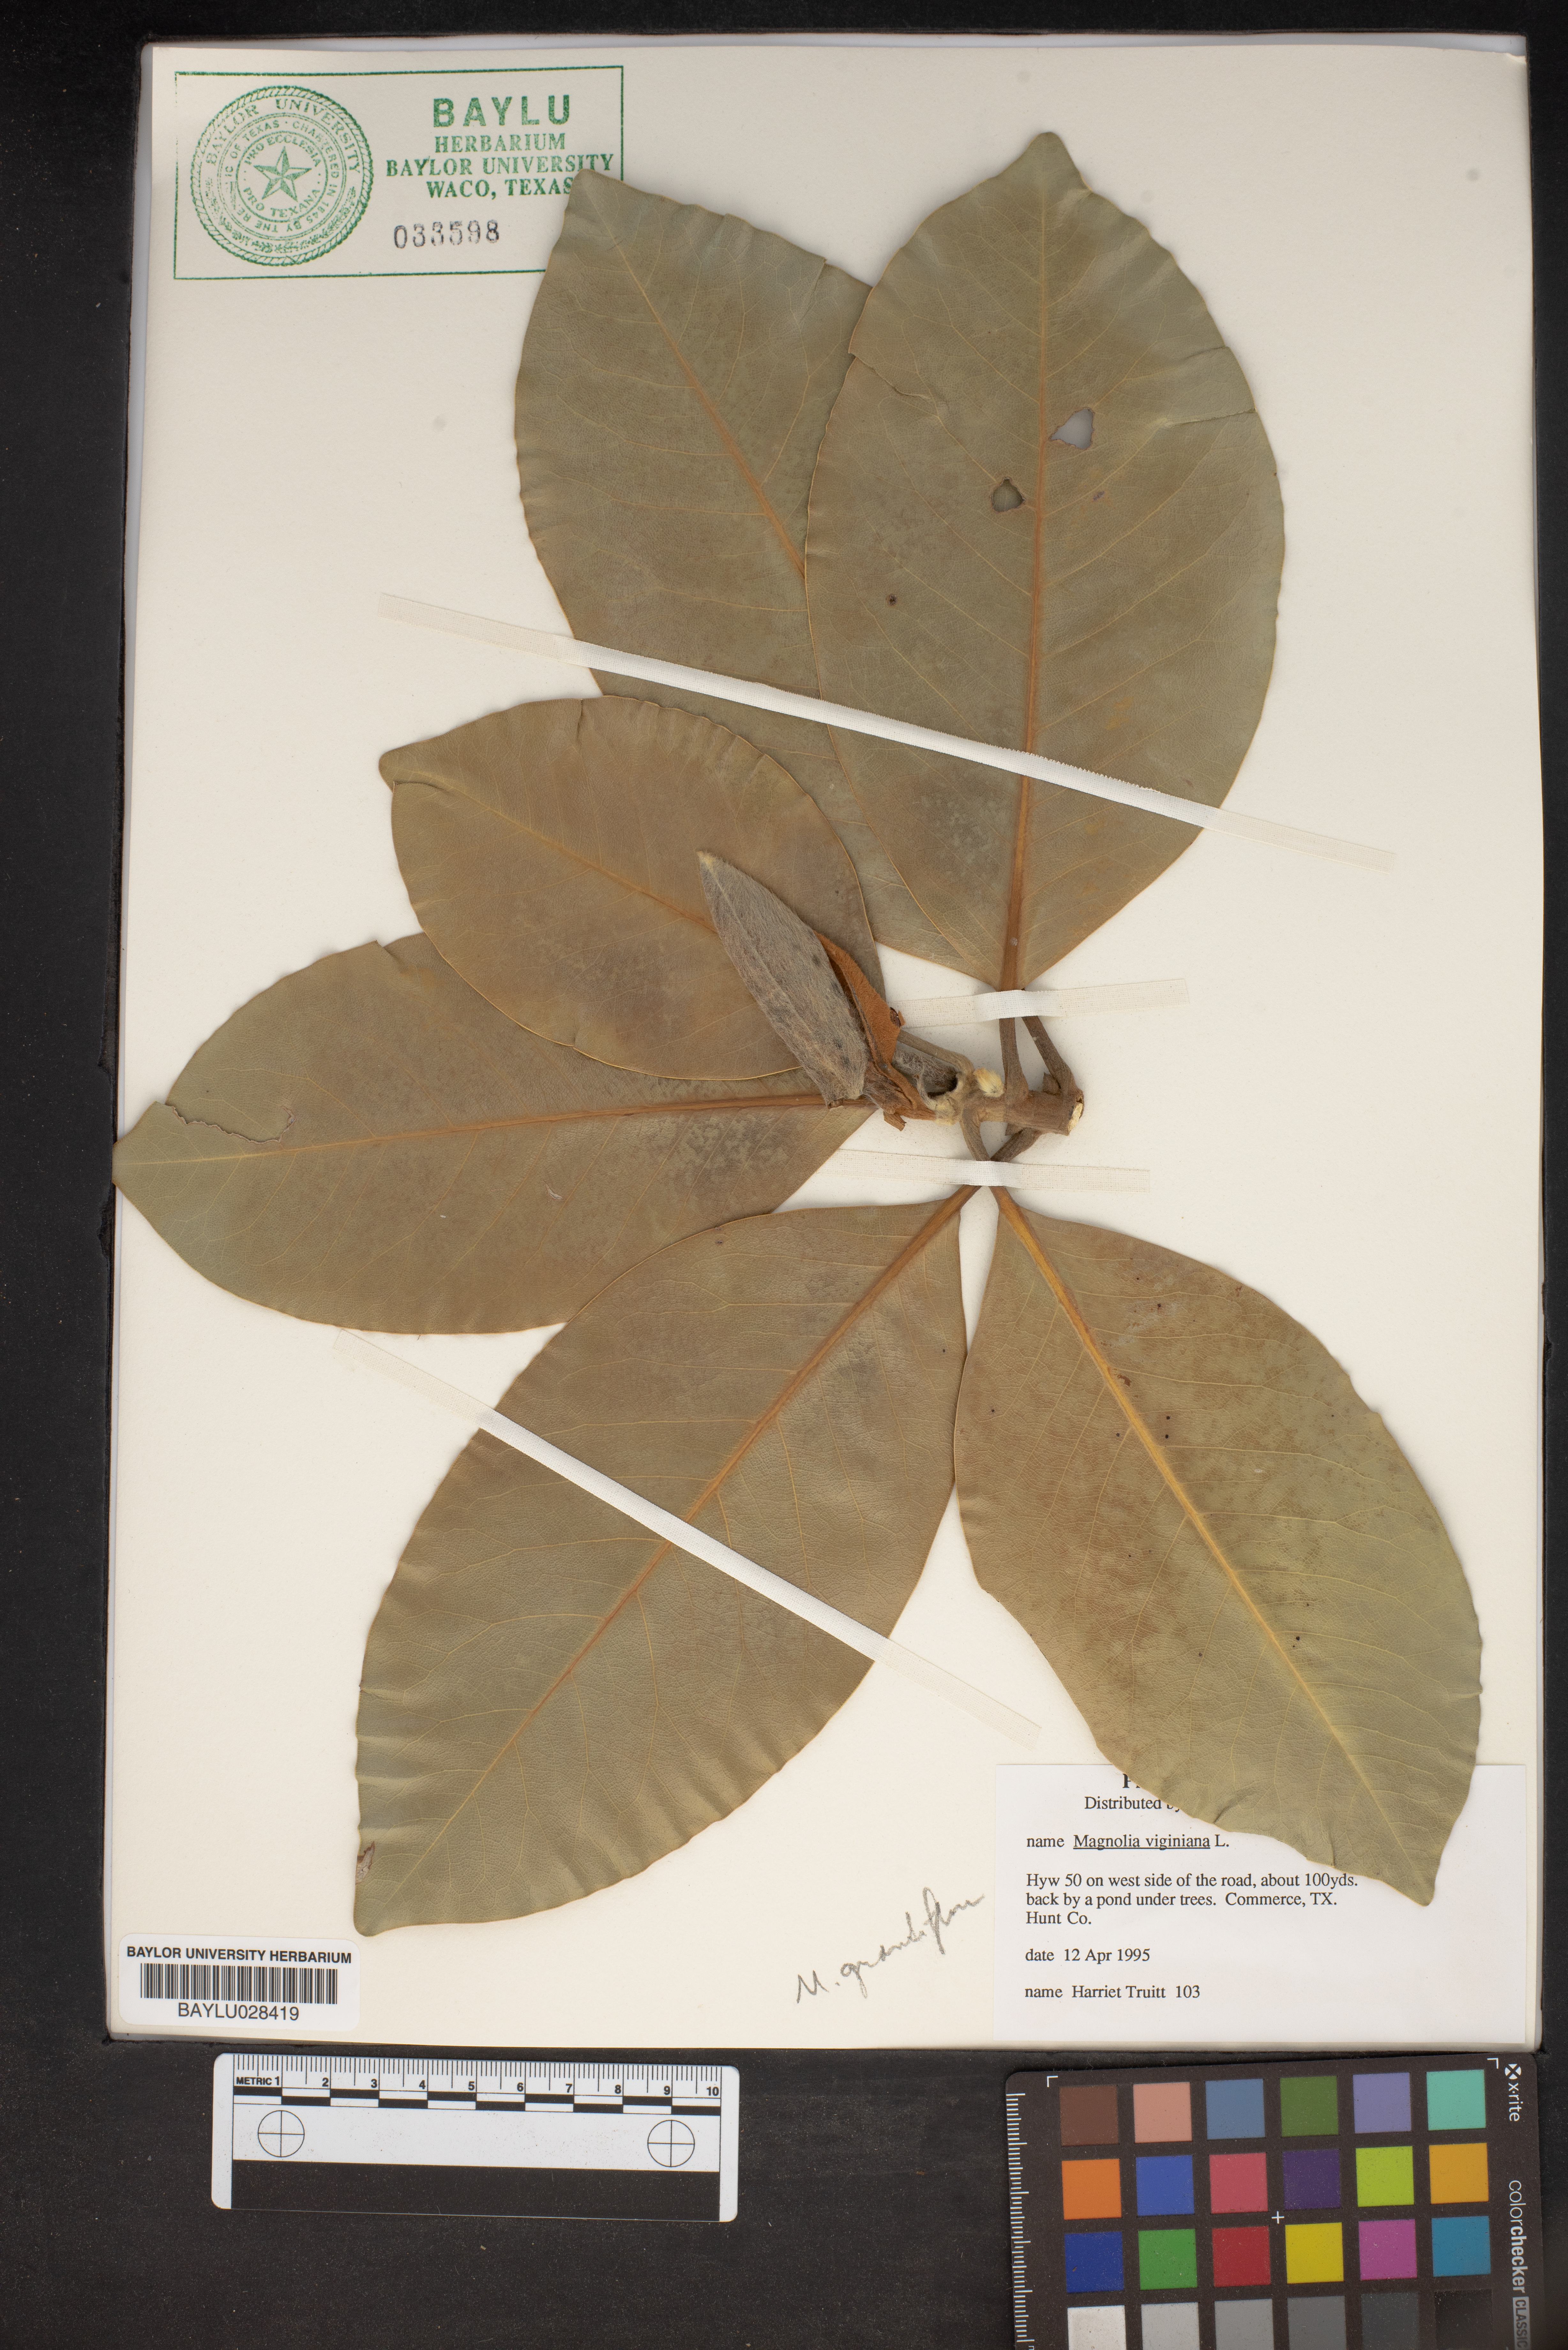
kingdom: Plantae
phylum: Tracheophyta
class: Magnoliopsida
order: Magnoliales
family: Magnoliaceae
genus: Magnolia
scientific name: Magnolia virginiana
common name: Swamp bay
